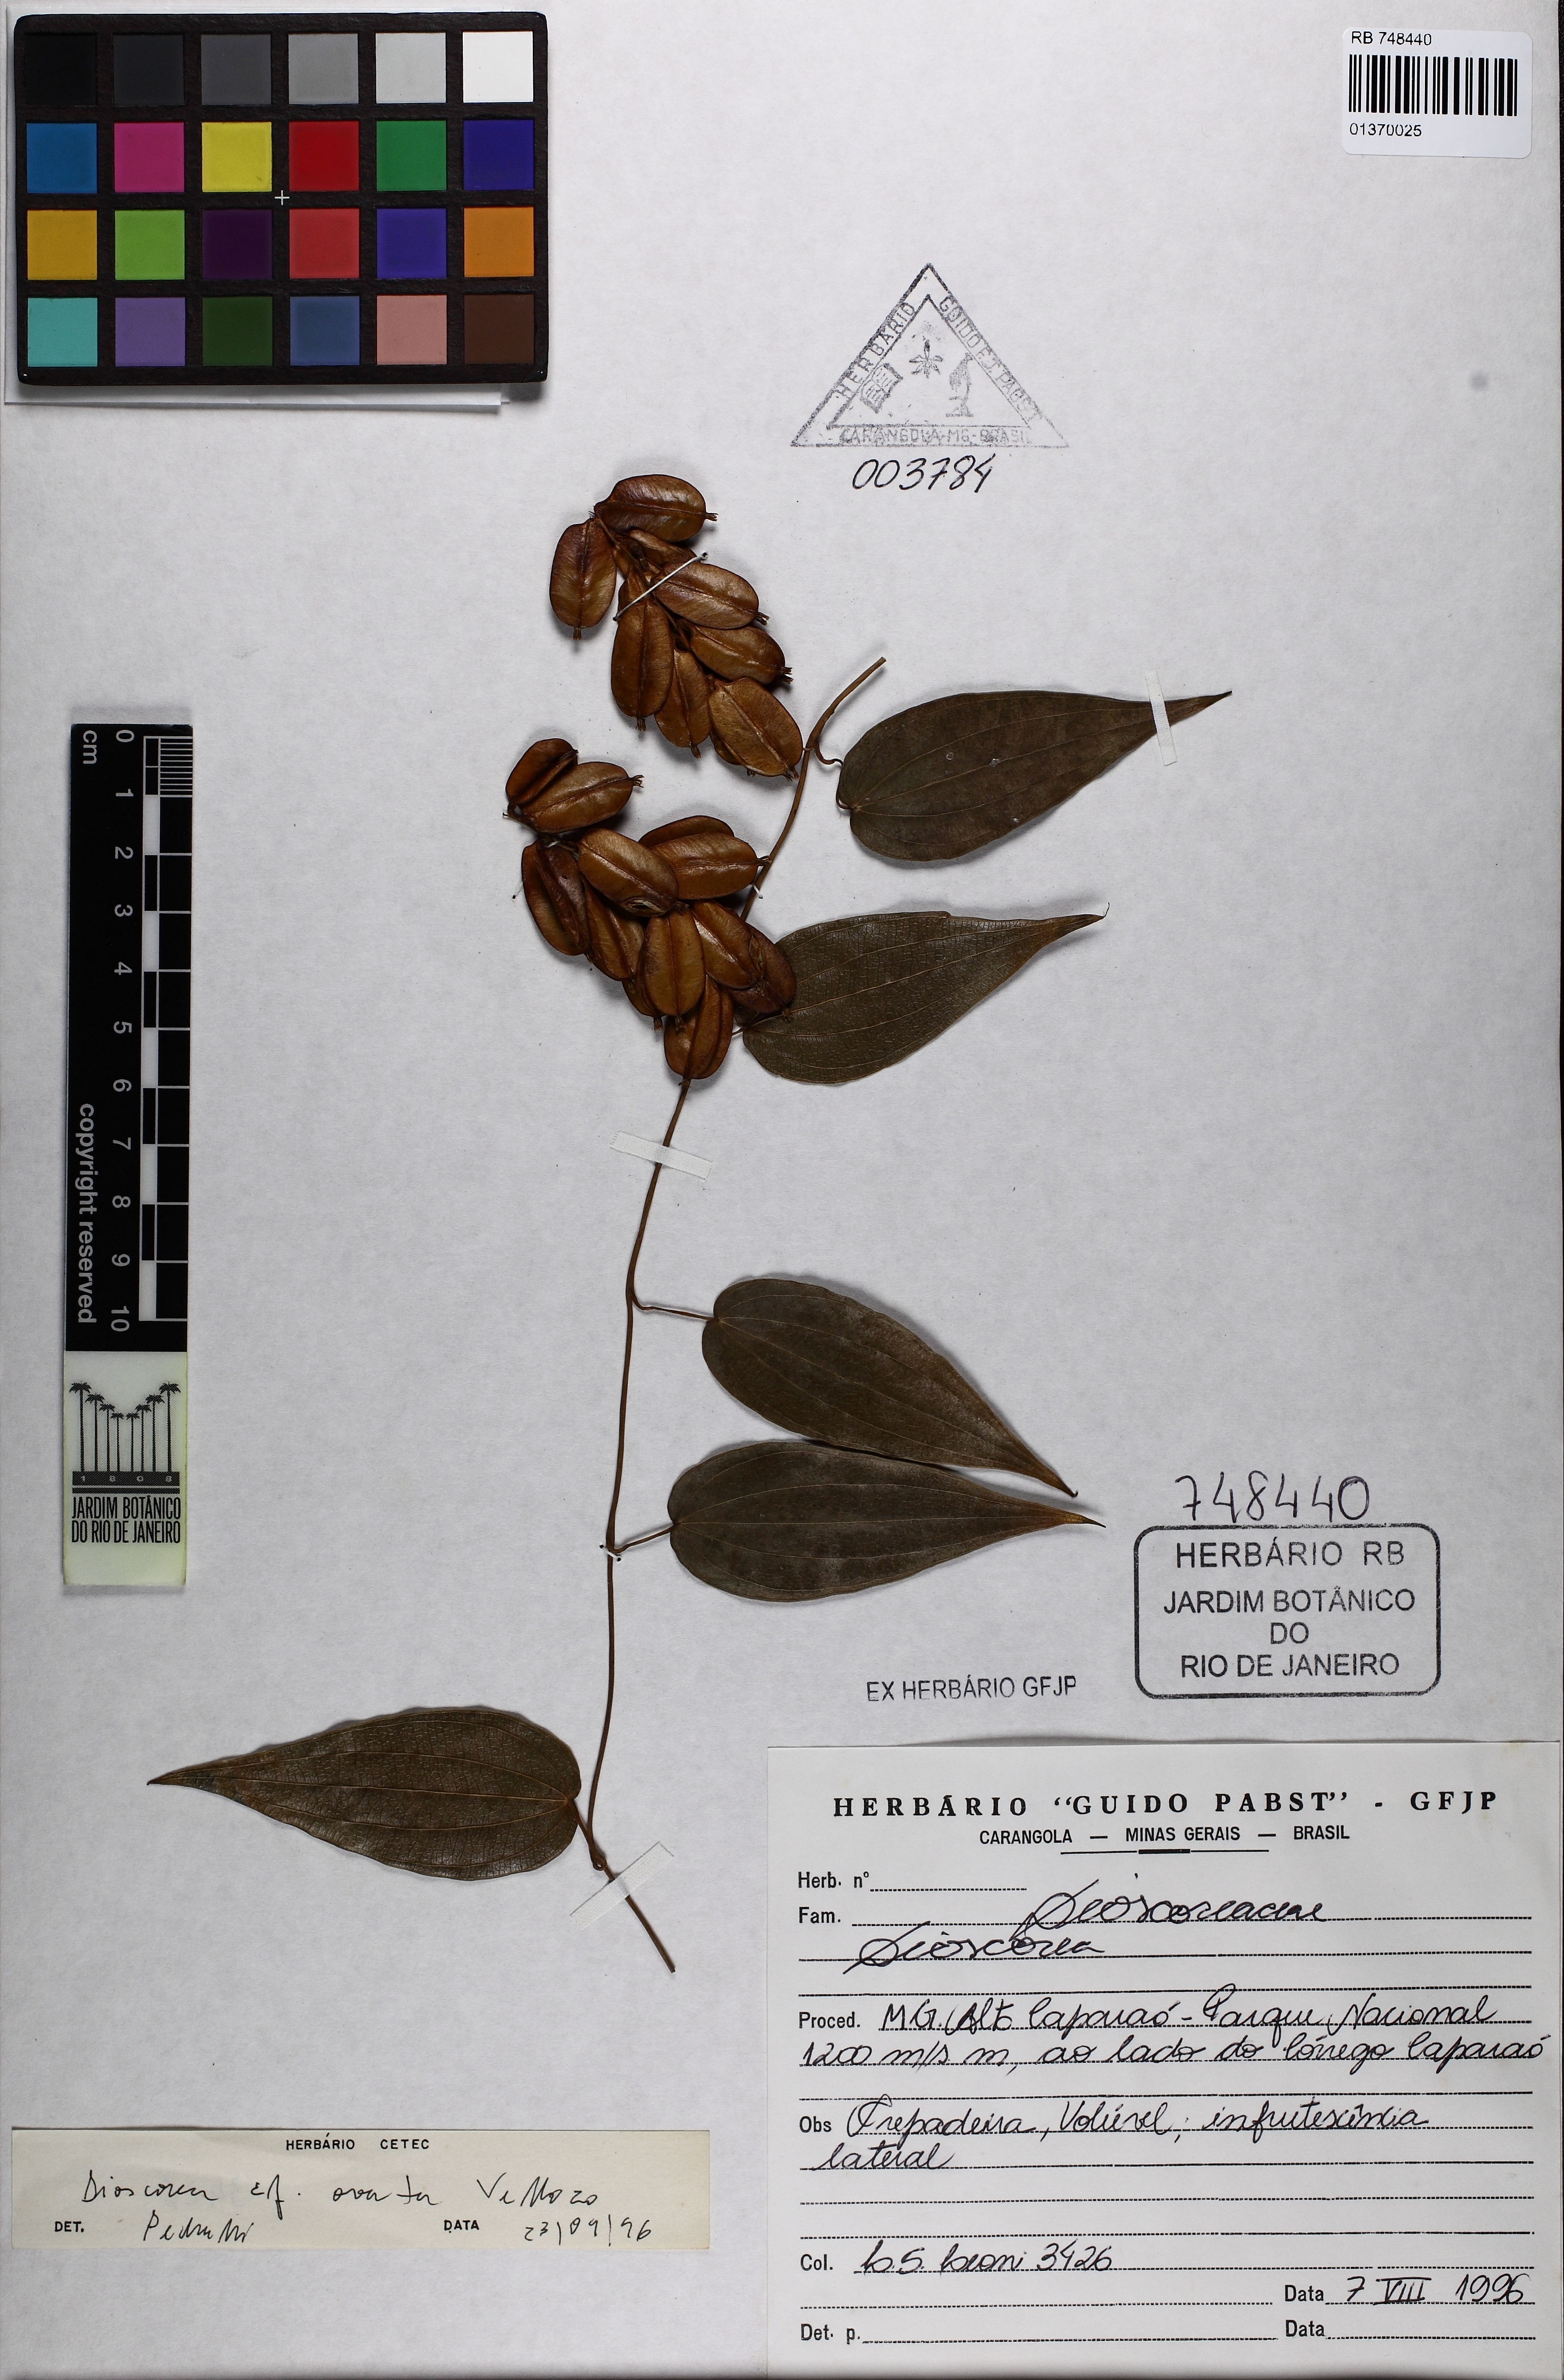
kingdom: Plantae
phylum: Tracheophyta
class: Liliopsida
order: Dioscoreales
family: Dioscoreaceae
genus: Dioscorea
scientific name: Dioscorea ovata
